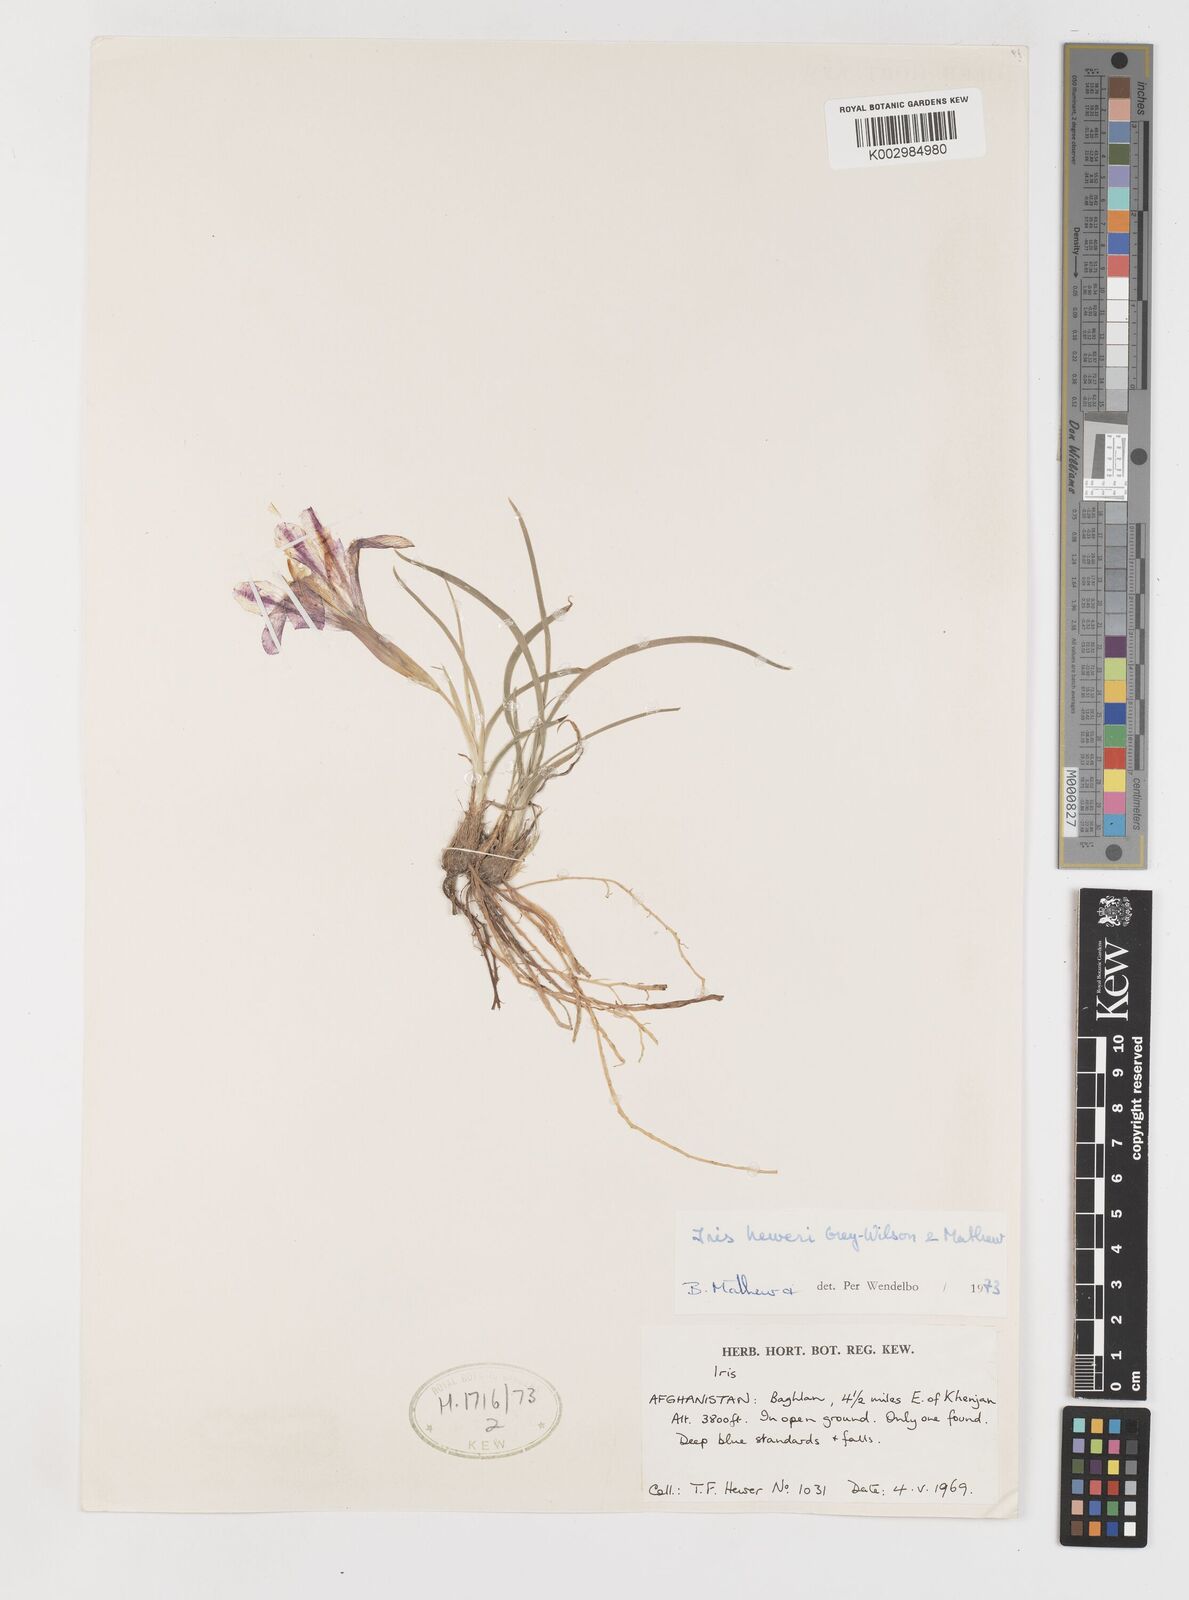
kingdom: Plantae
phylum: Tracheophyta
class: Liliopsida
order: Asparagales
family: Iridaceae
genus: Iris
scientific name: Iris heweri
